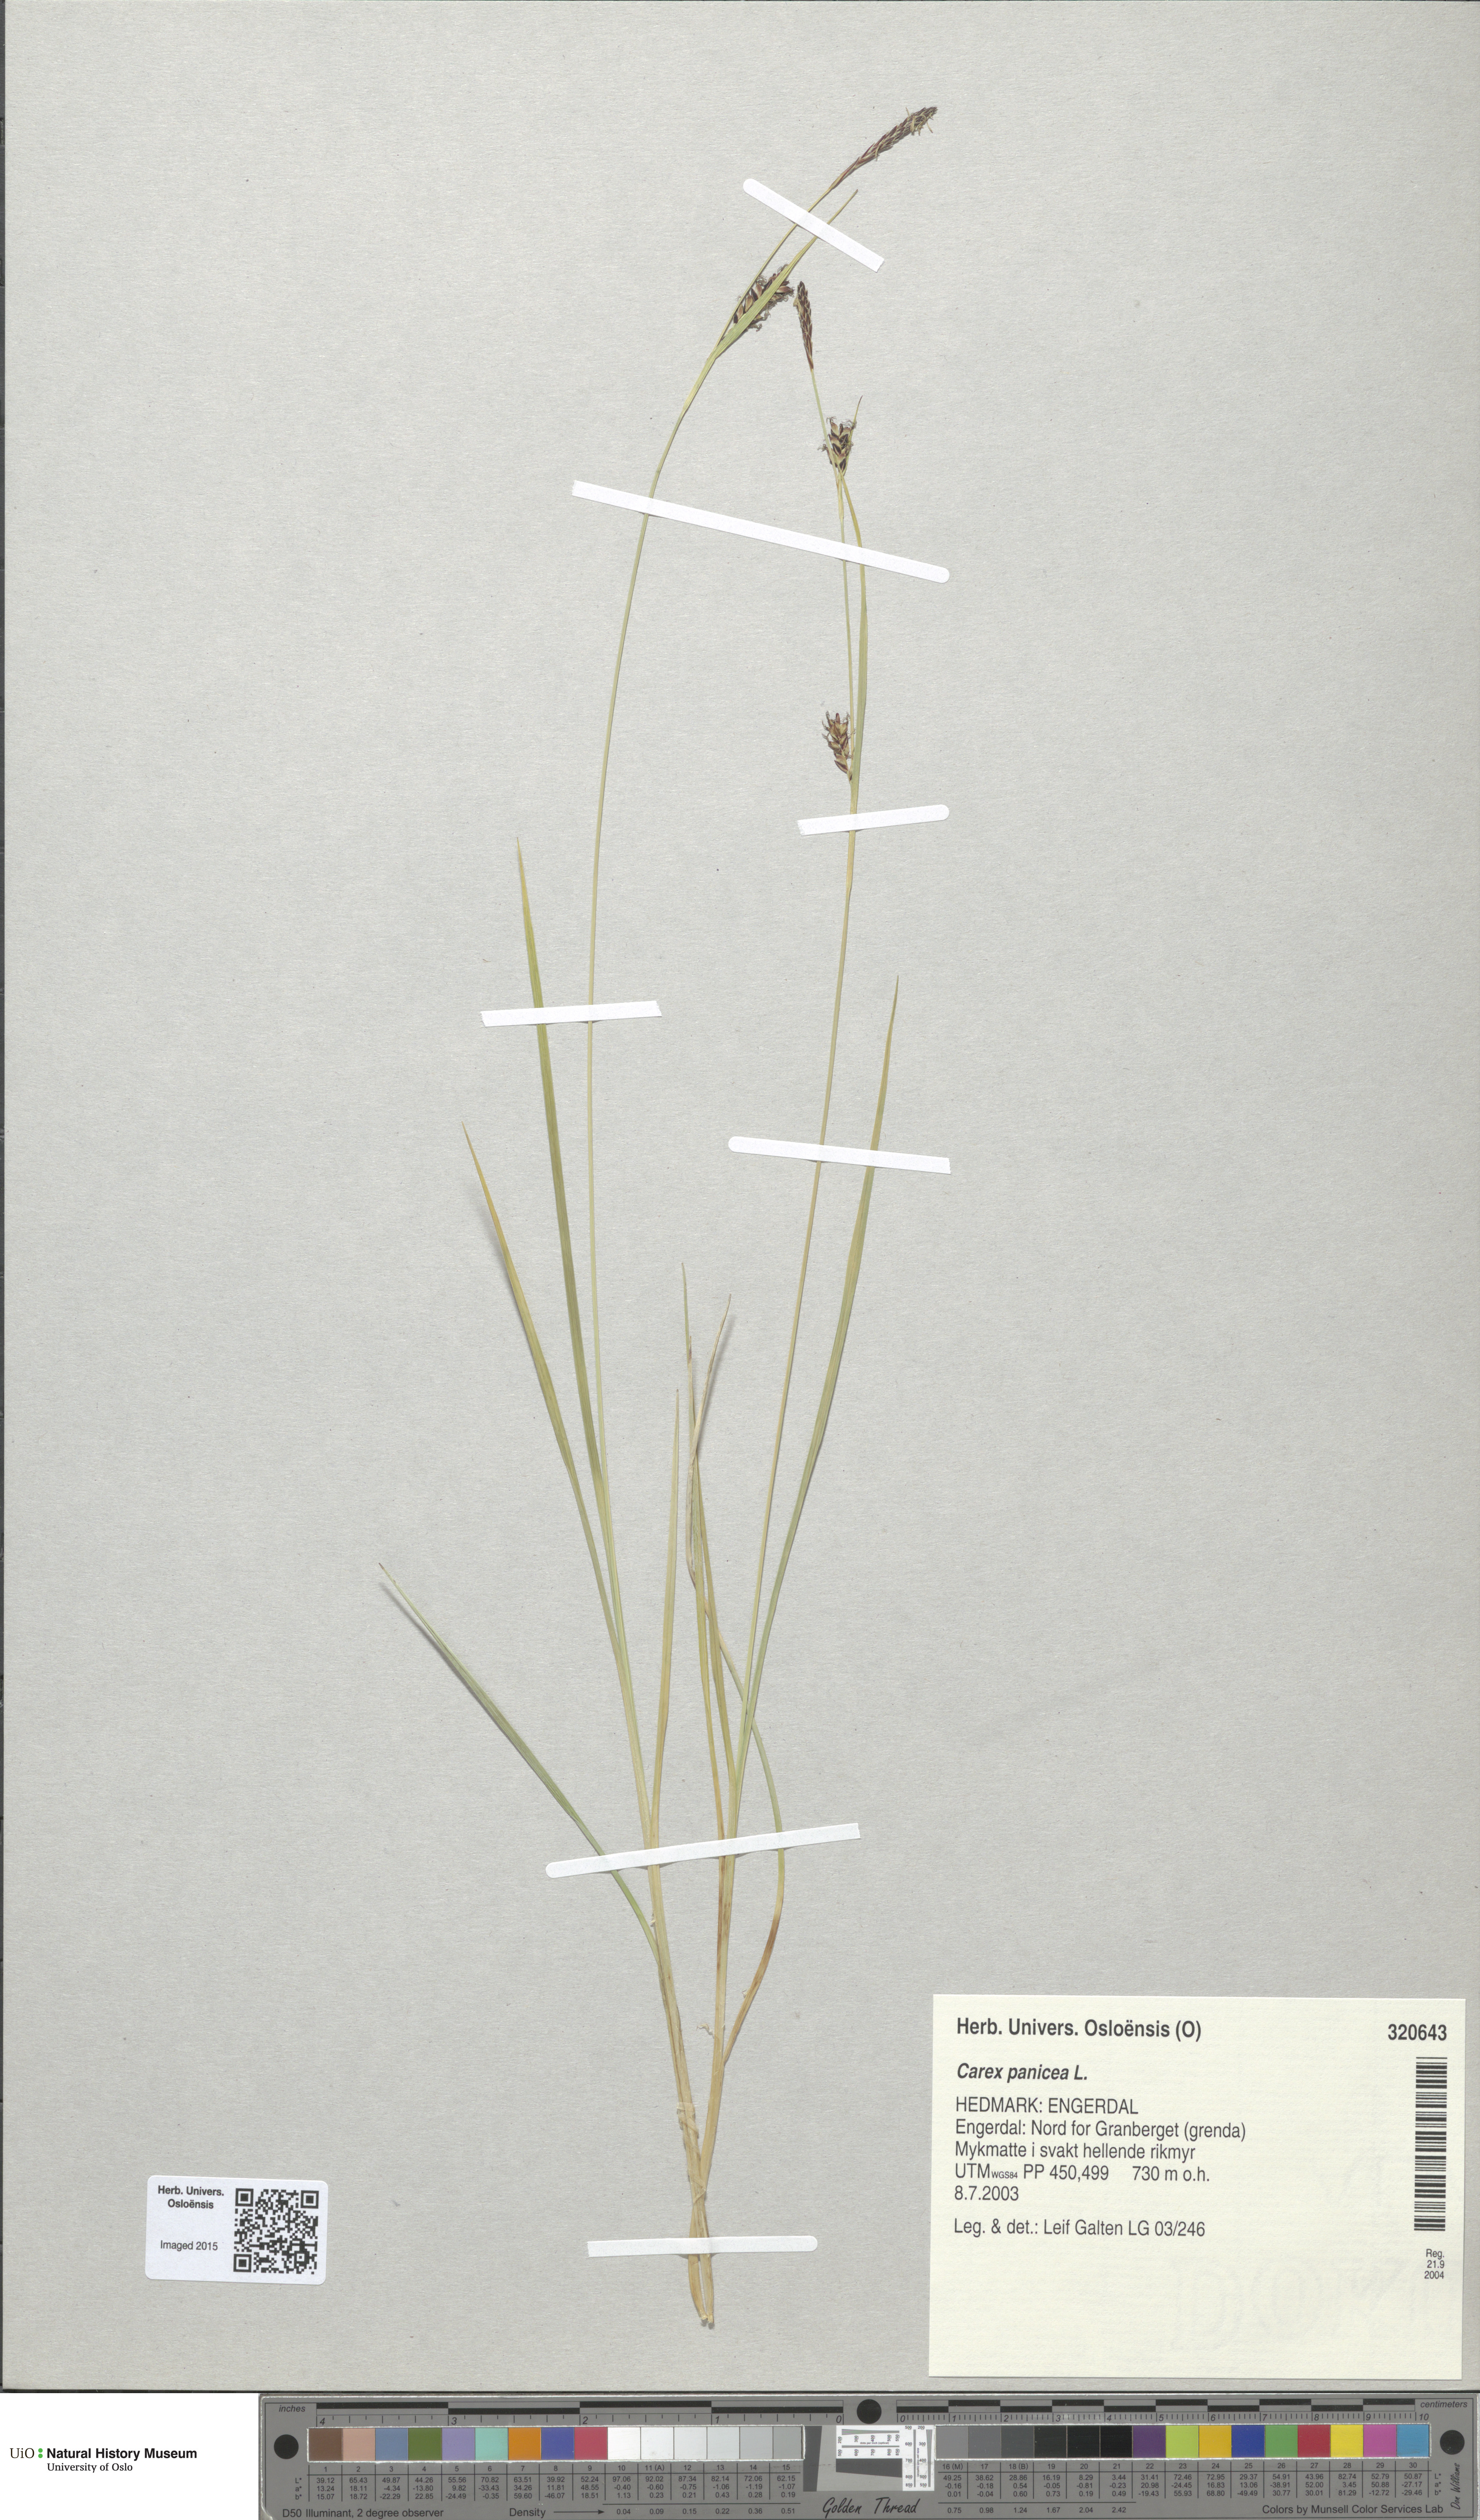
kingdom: Plantae
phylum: Tracheophyta
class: Liliopsida
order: Poales
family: Cyperaceae
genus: Carex
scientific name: Carex panicea
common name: Carnation sedge
